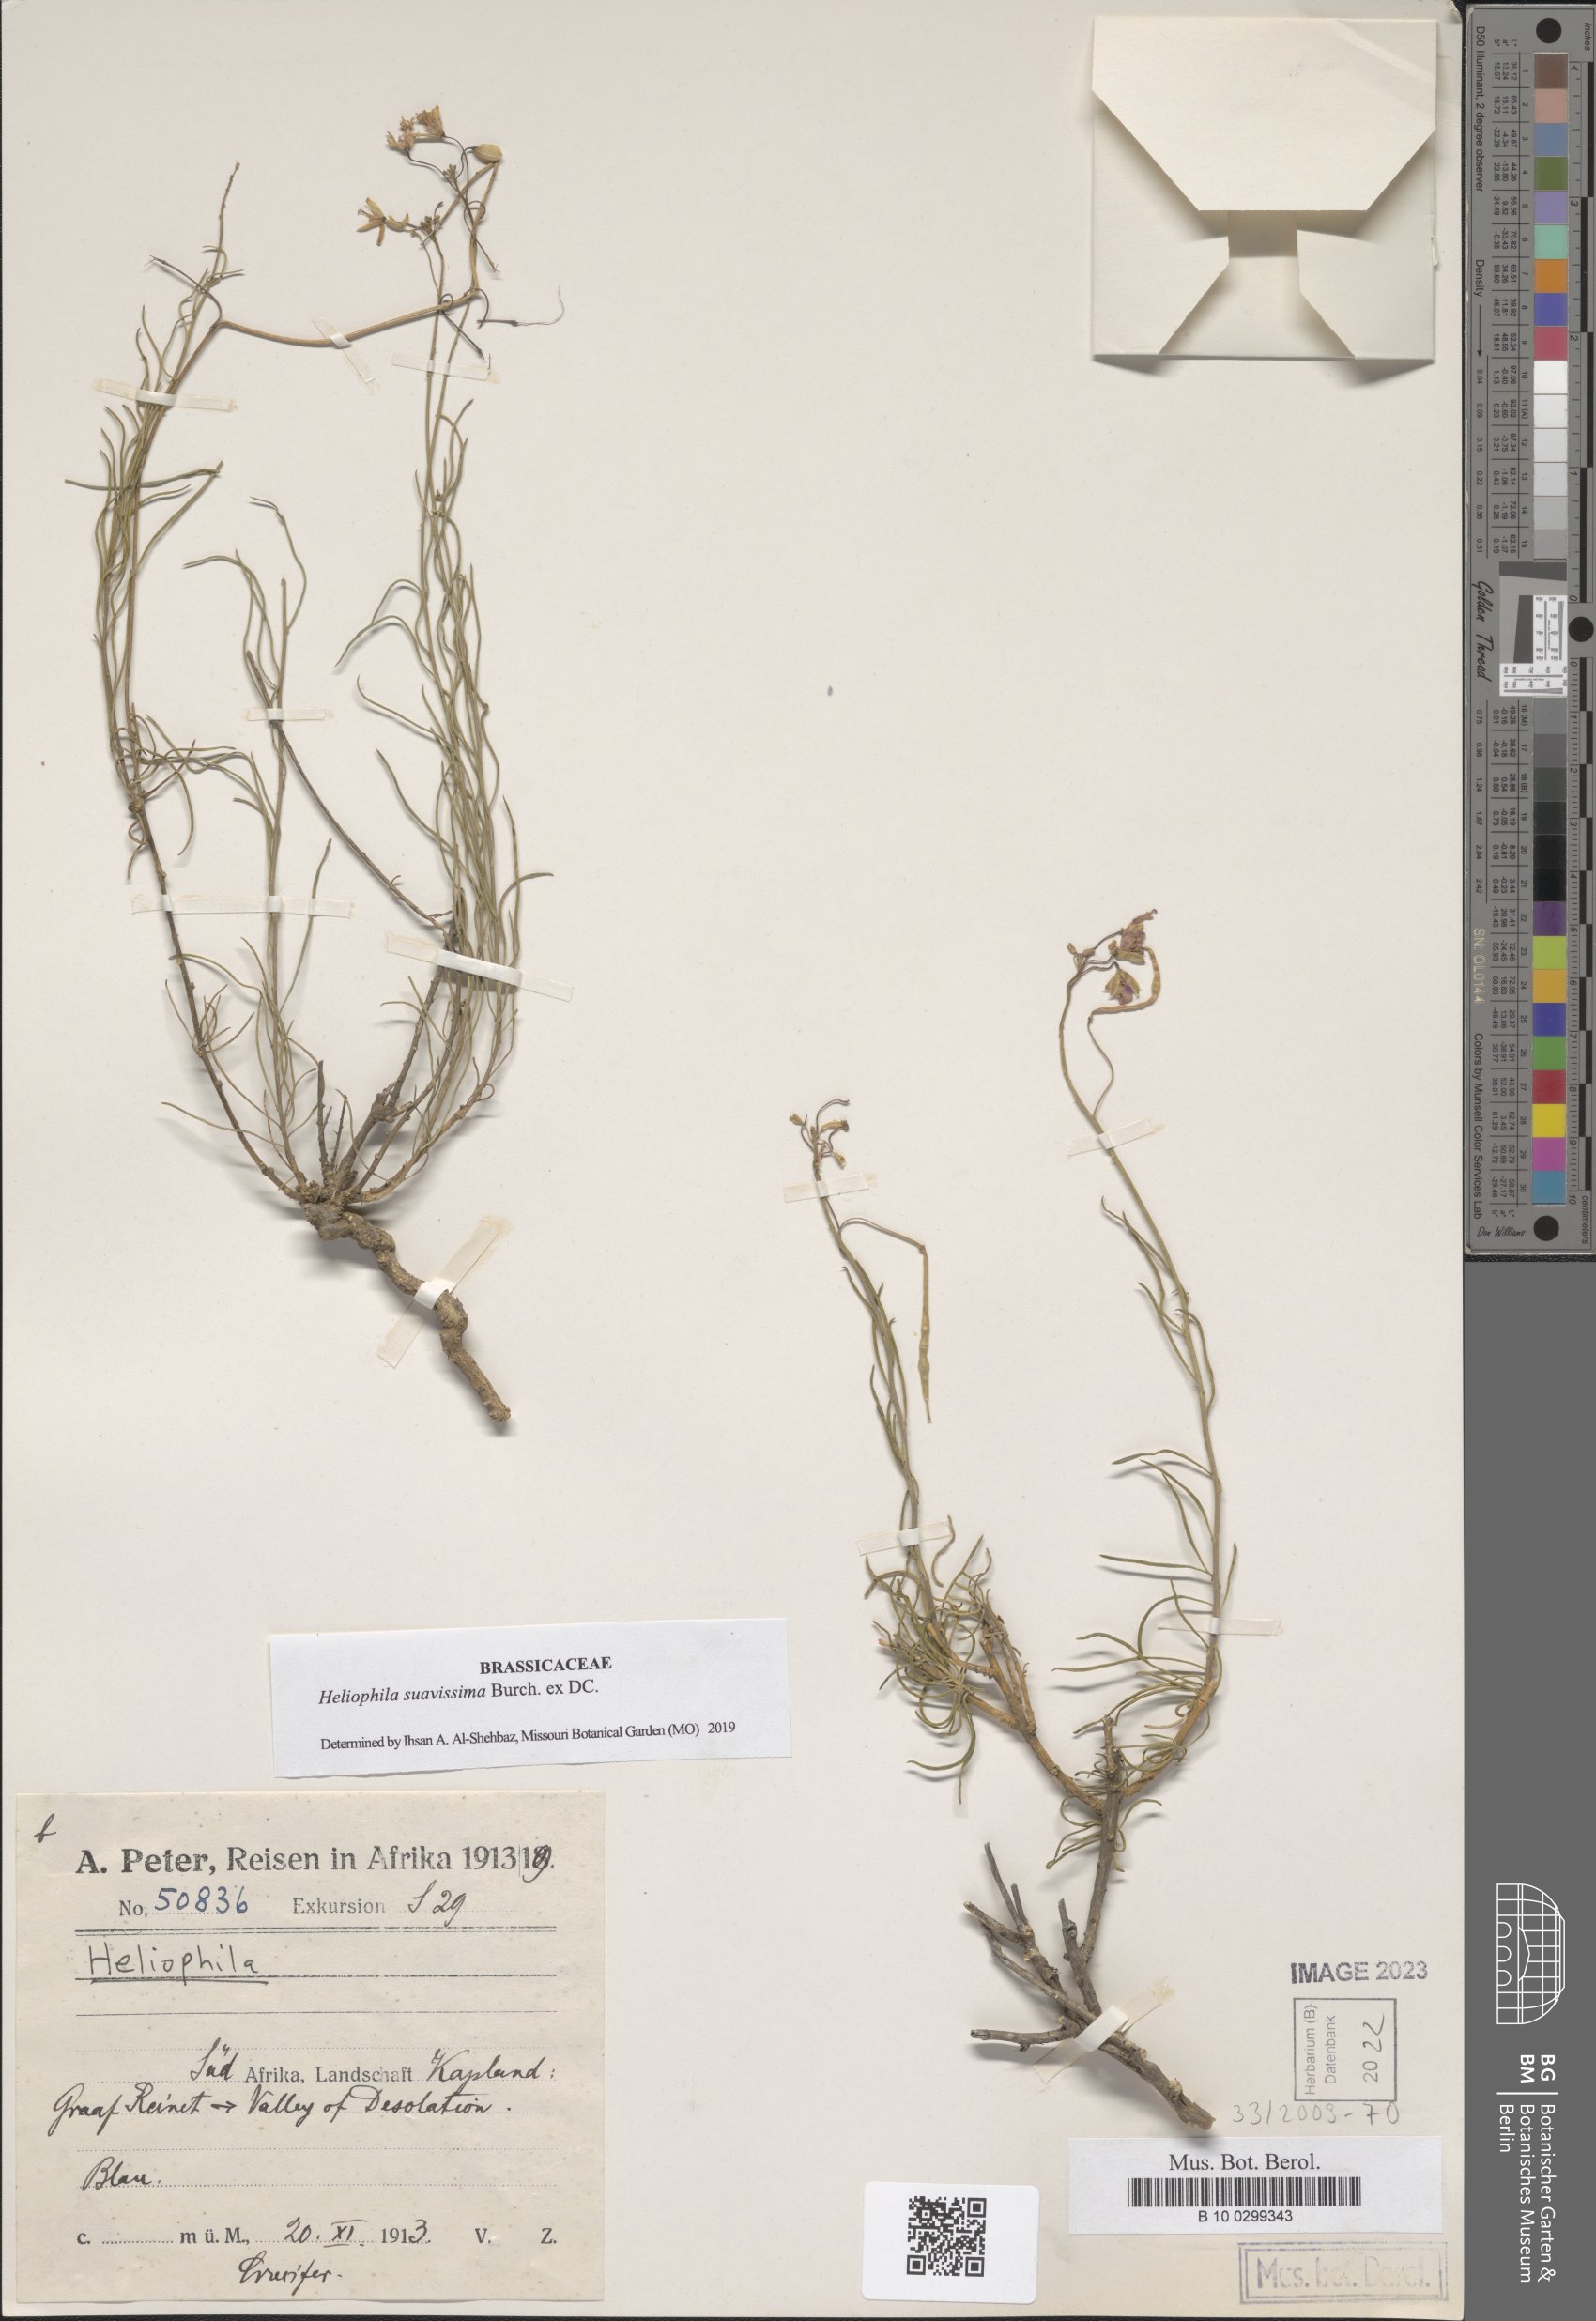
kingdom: Plantae
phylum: Tracheophyta
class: Magnoliopsida
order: Brassicales
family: Brassicaceae
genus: Heliophila
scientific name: Heliophila
